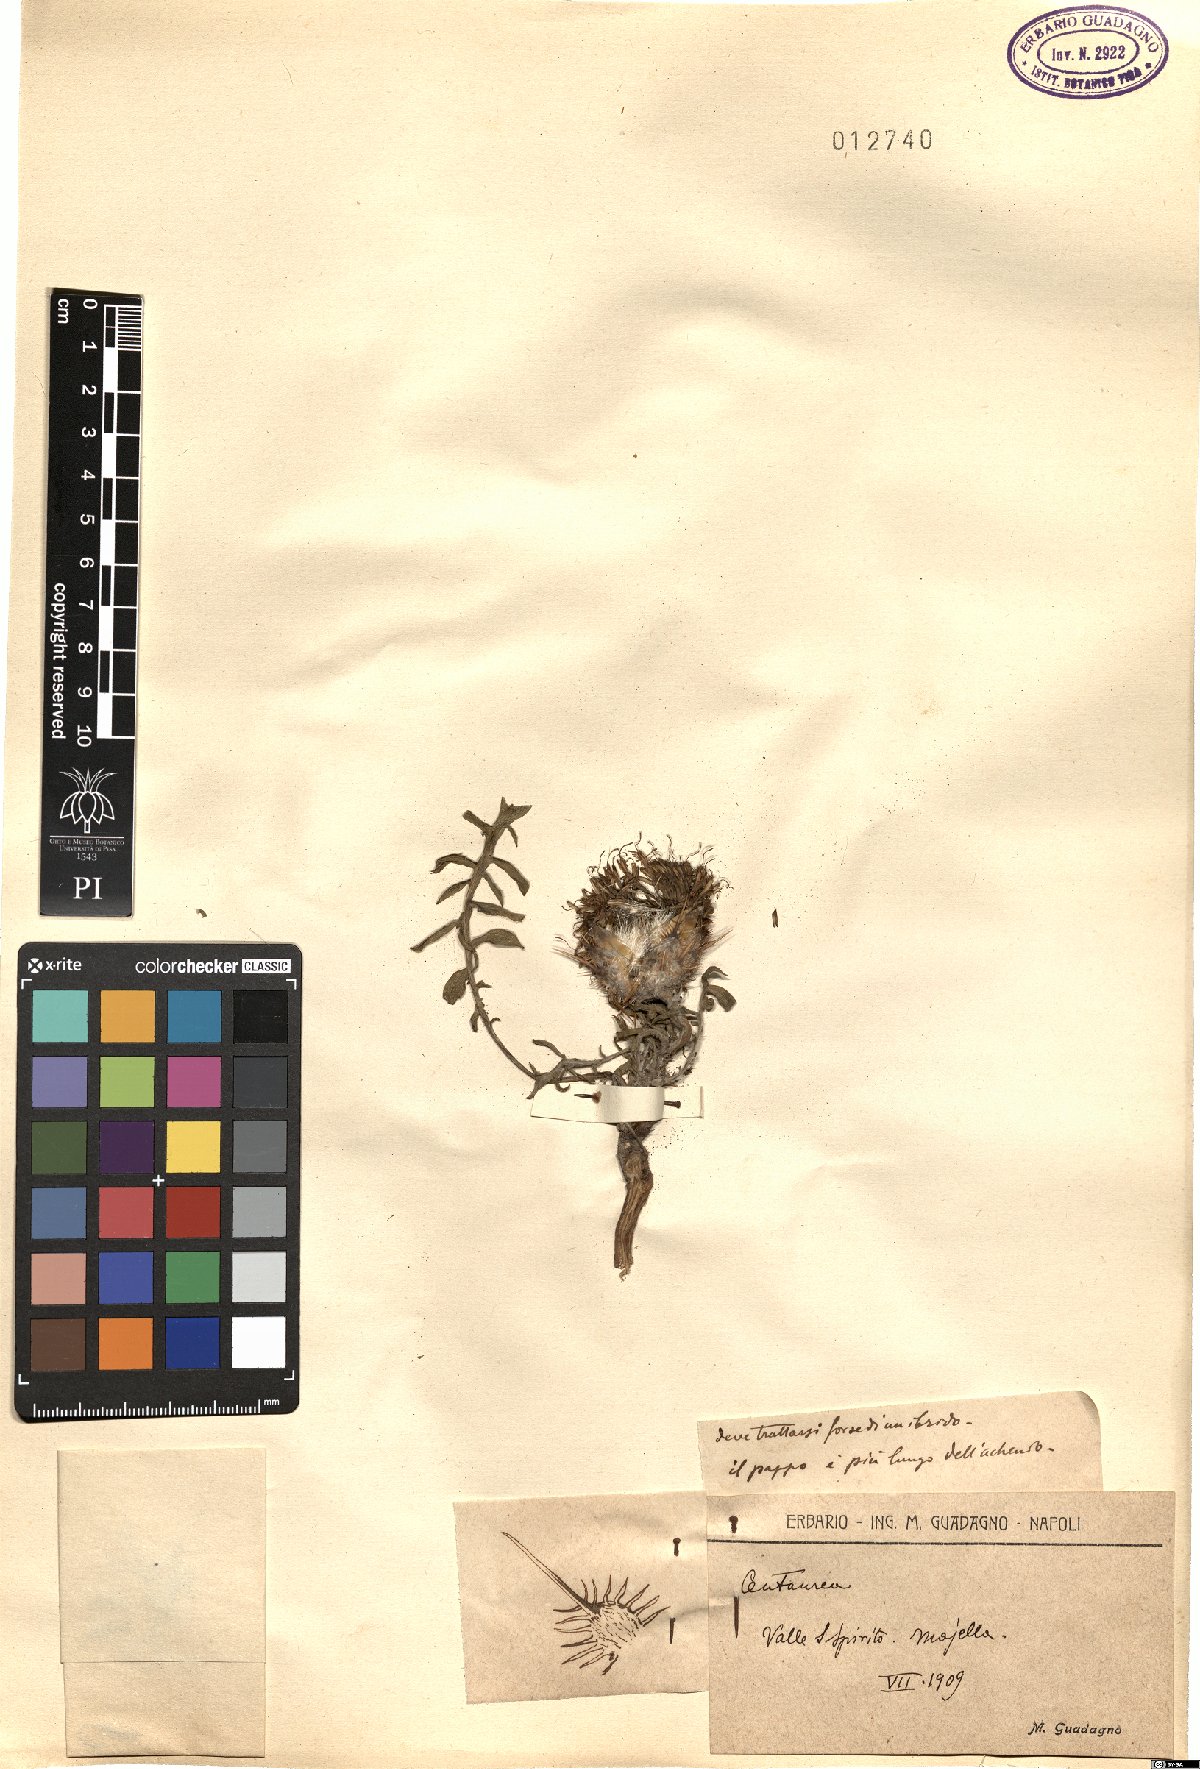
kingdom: Plantae
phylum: Tracheophyta
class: Magnoliopsida
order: Asterales
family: Asteraceae
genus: Centaurea
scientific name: Centaurea
